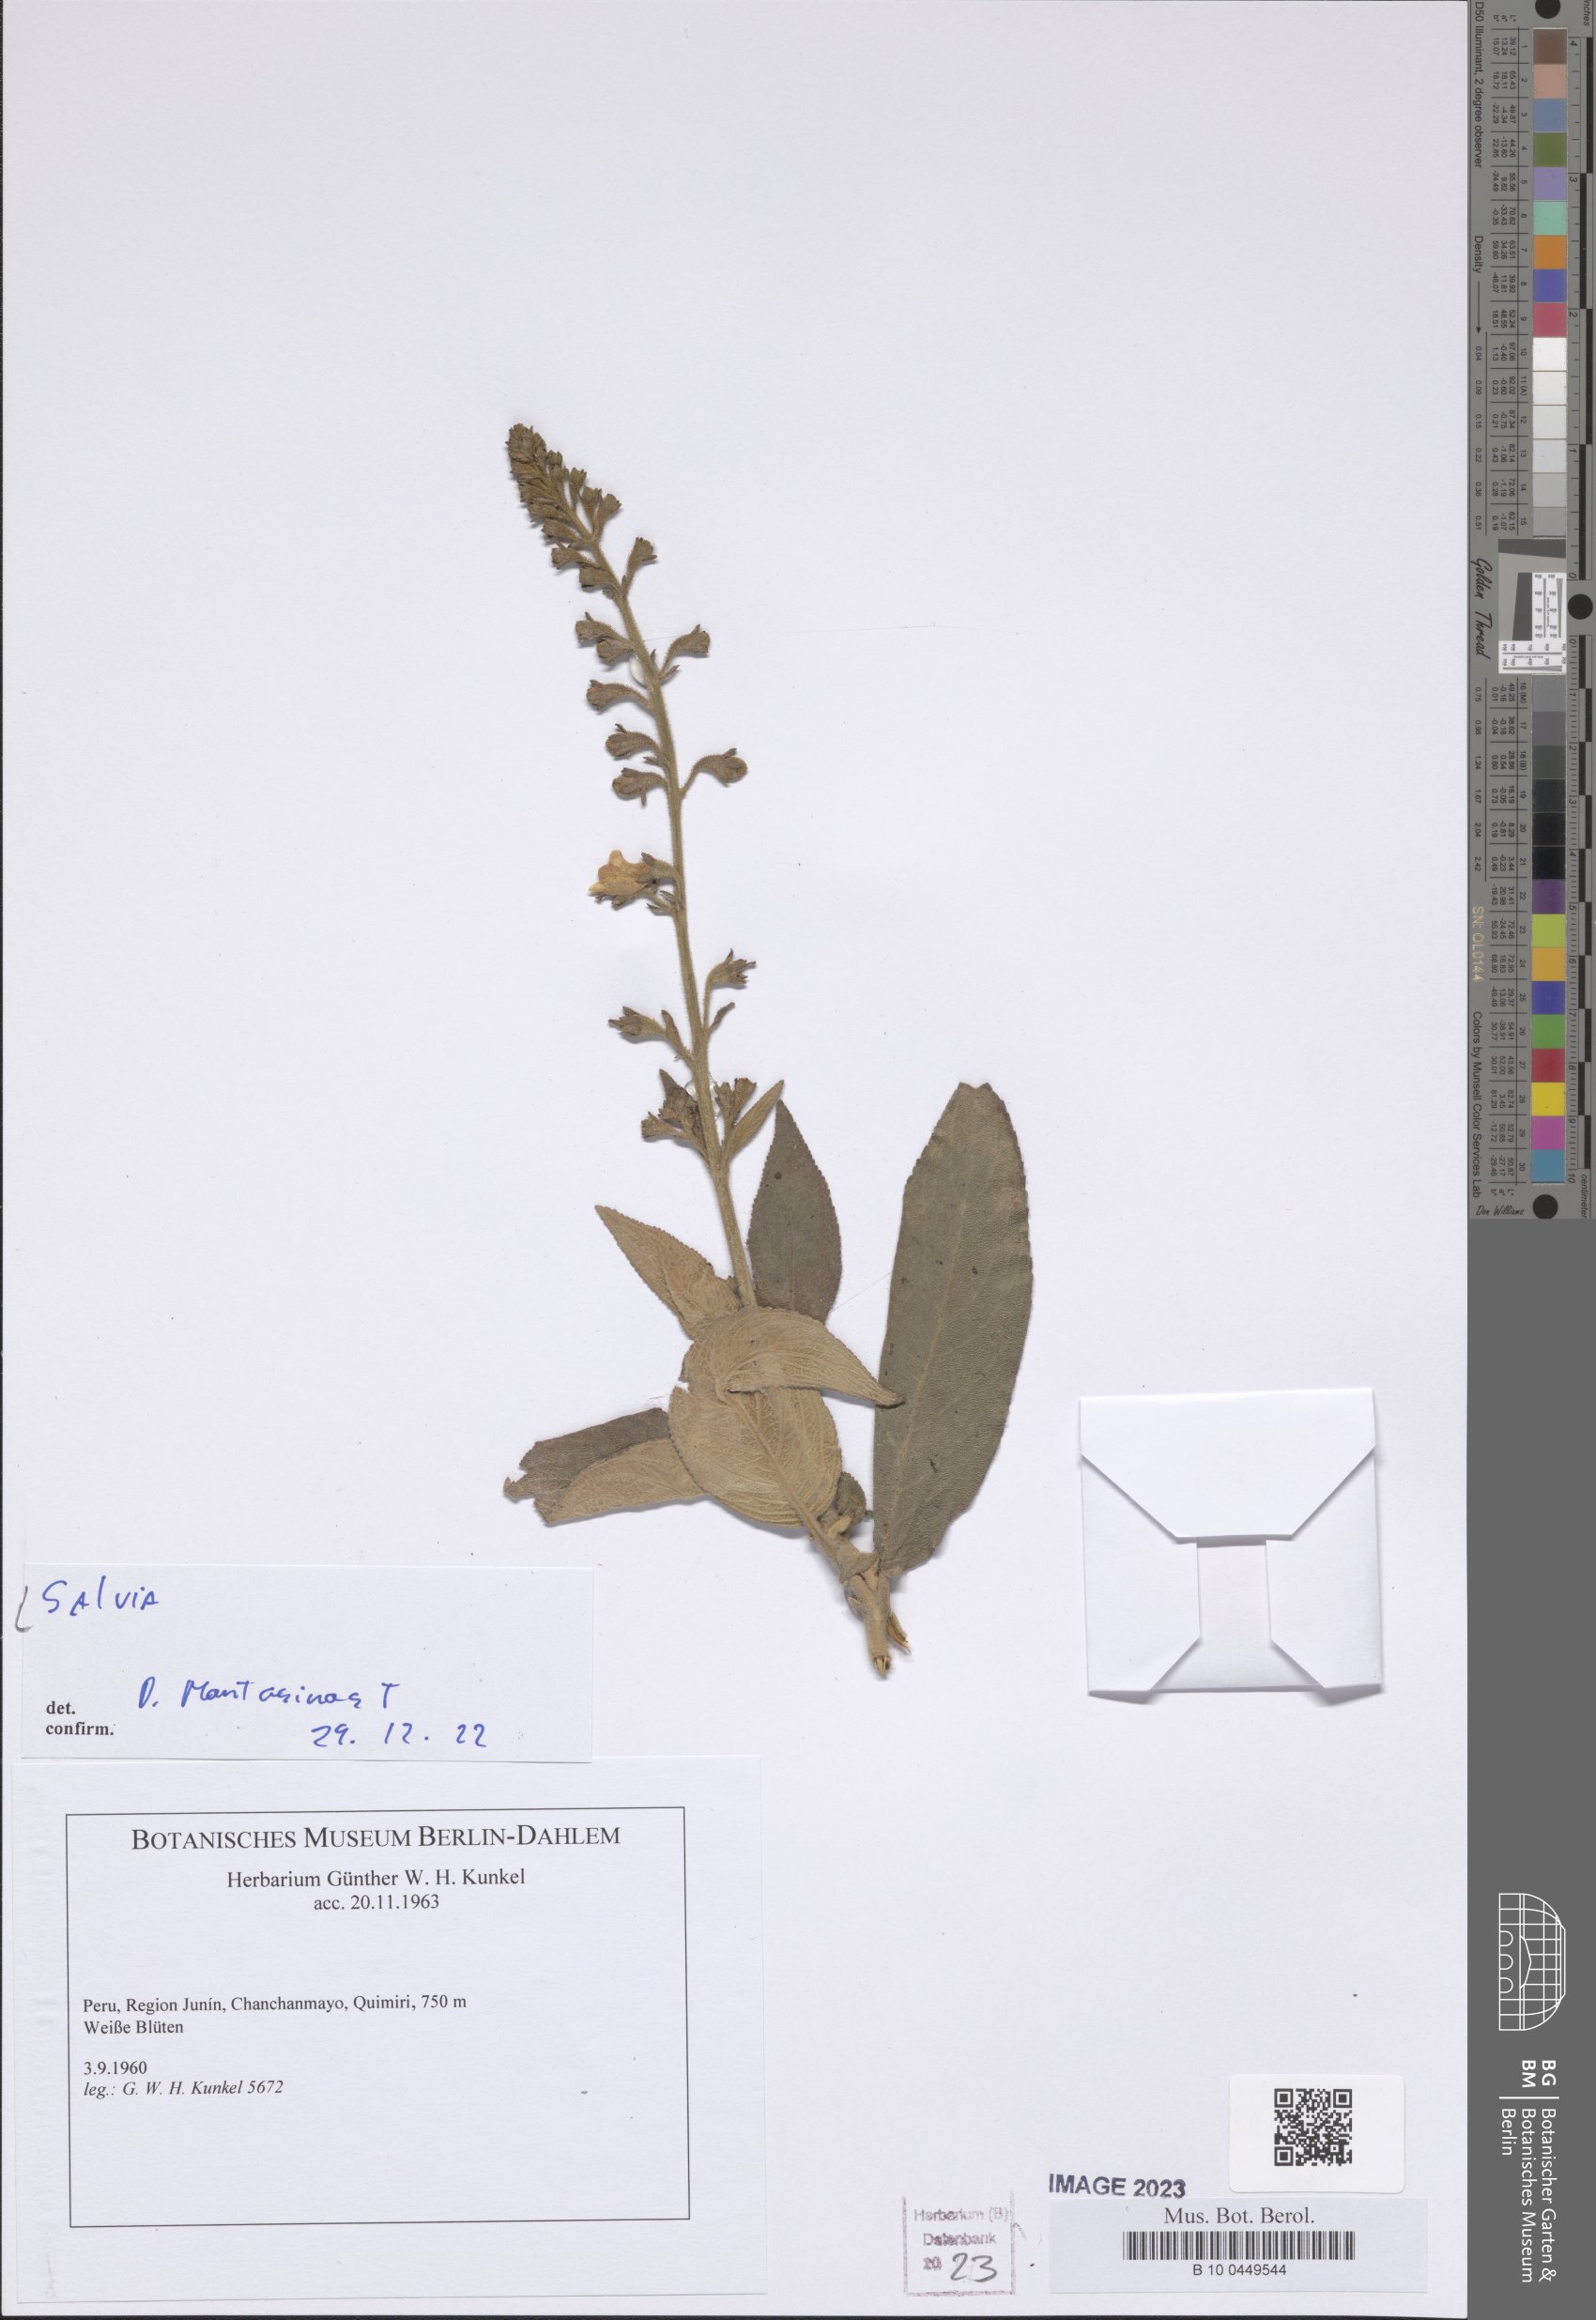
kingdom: Plantae
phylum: Tracheophyta
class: Magnoliopsida
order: Lamiales
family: Lamiaceae
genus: Salvia
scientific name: Salvia
